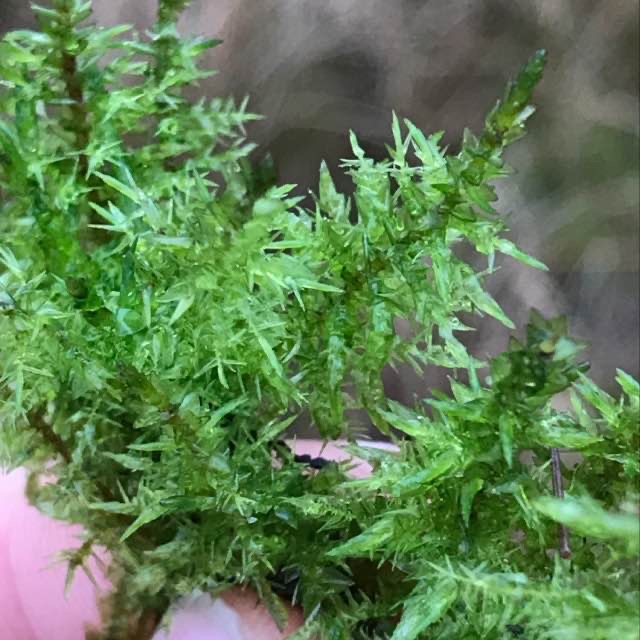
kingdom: Plantae
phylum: Bryophyta
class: Bryopsida
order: Hypnales
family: Calliergonaceae
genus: Calliergon
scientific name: Calliergon giganteum
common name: Stor skebladsmos
